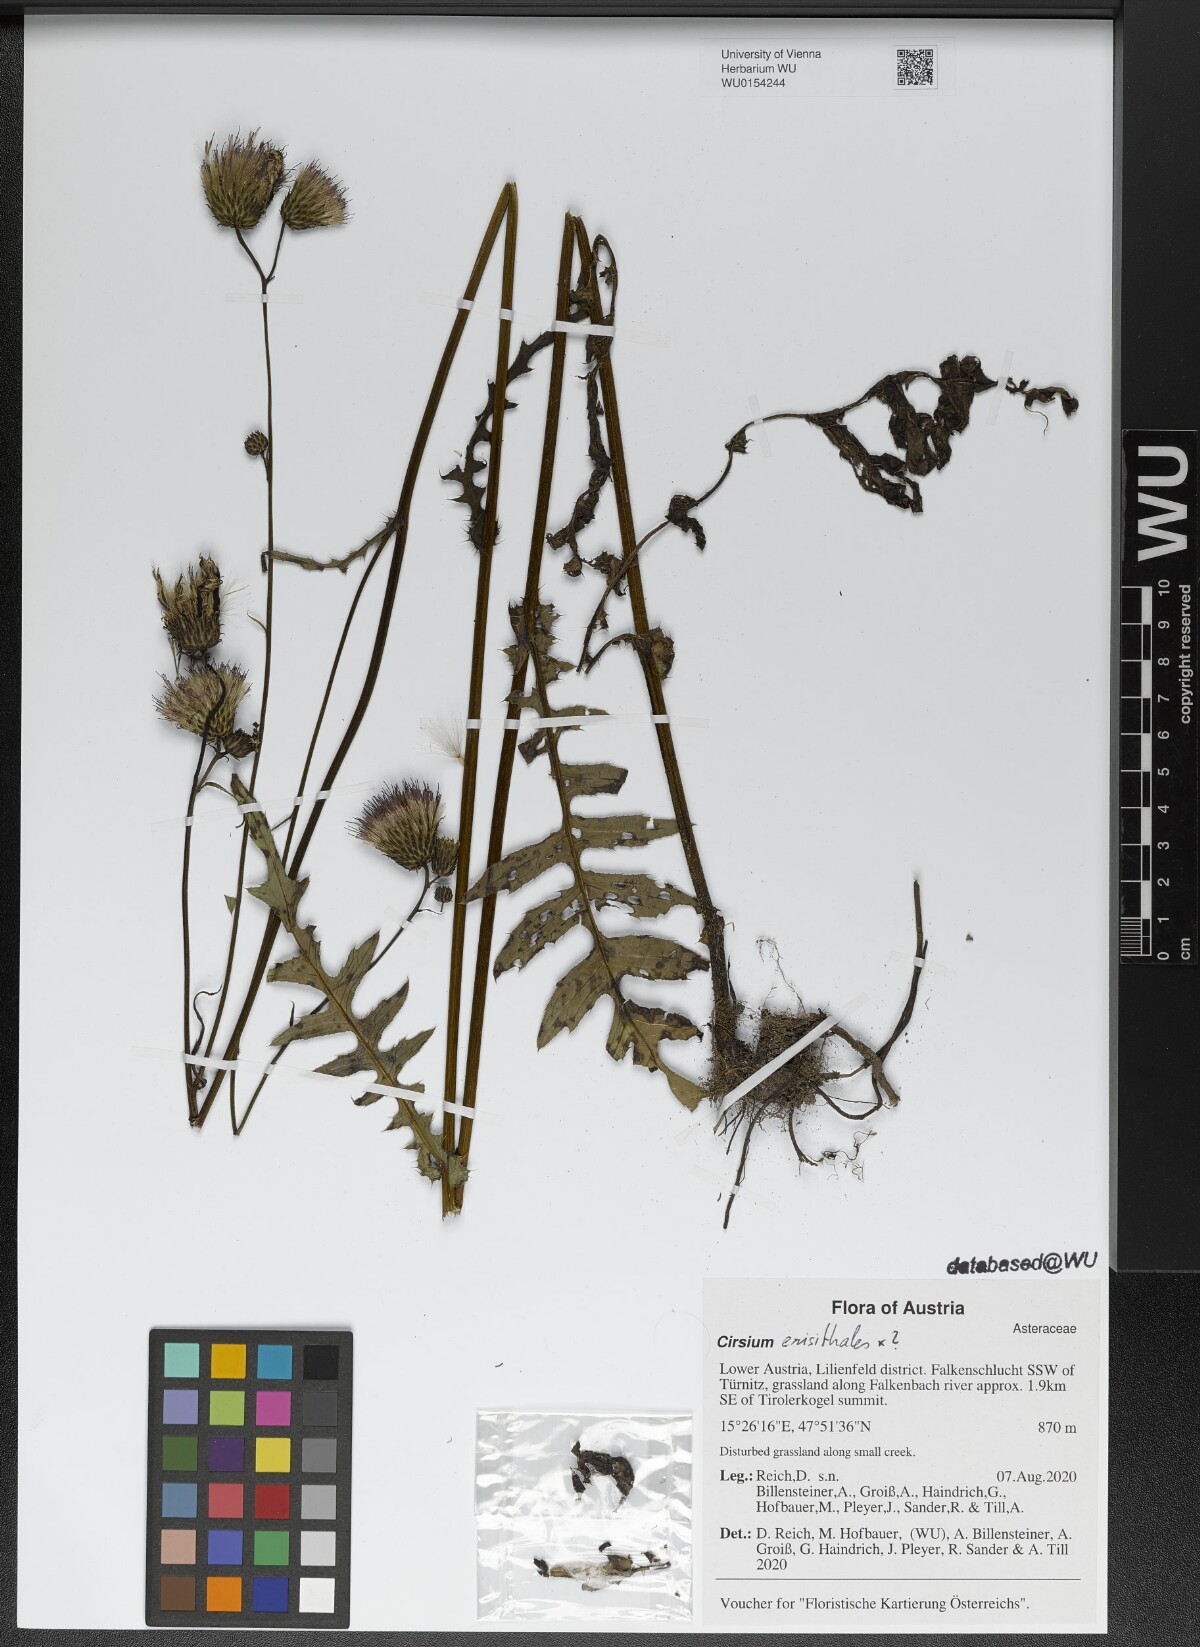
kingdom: Plantae
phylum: Tracheophyta
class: Magnoliopsida
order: Asterales
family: Asteraceae
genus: Cirsium
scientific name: Cirsium
